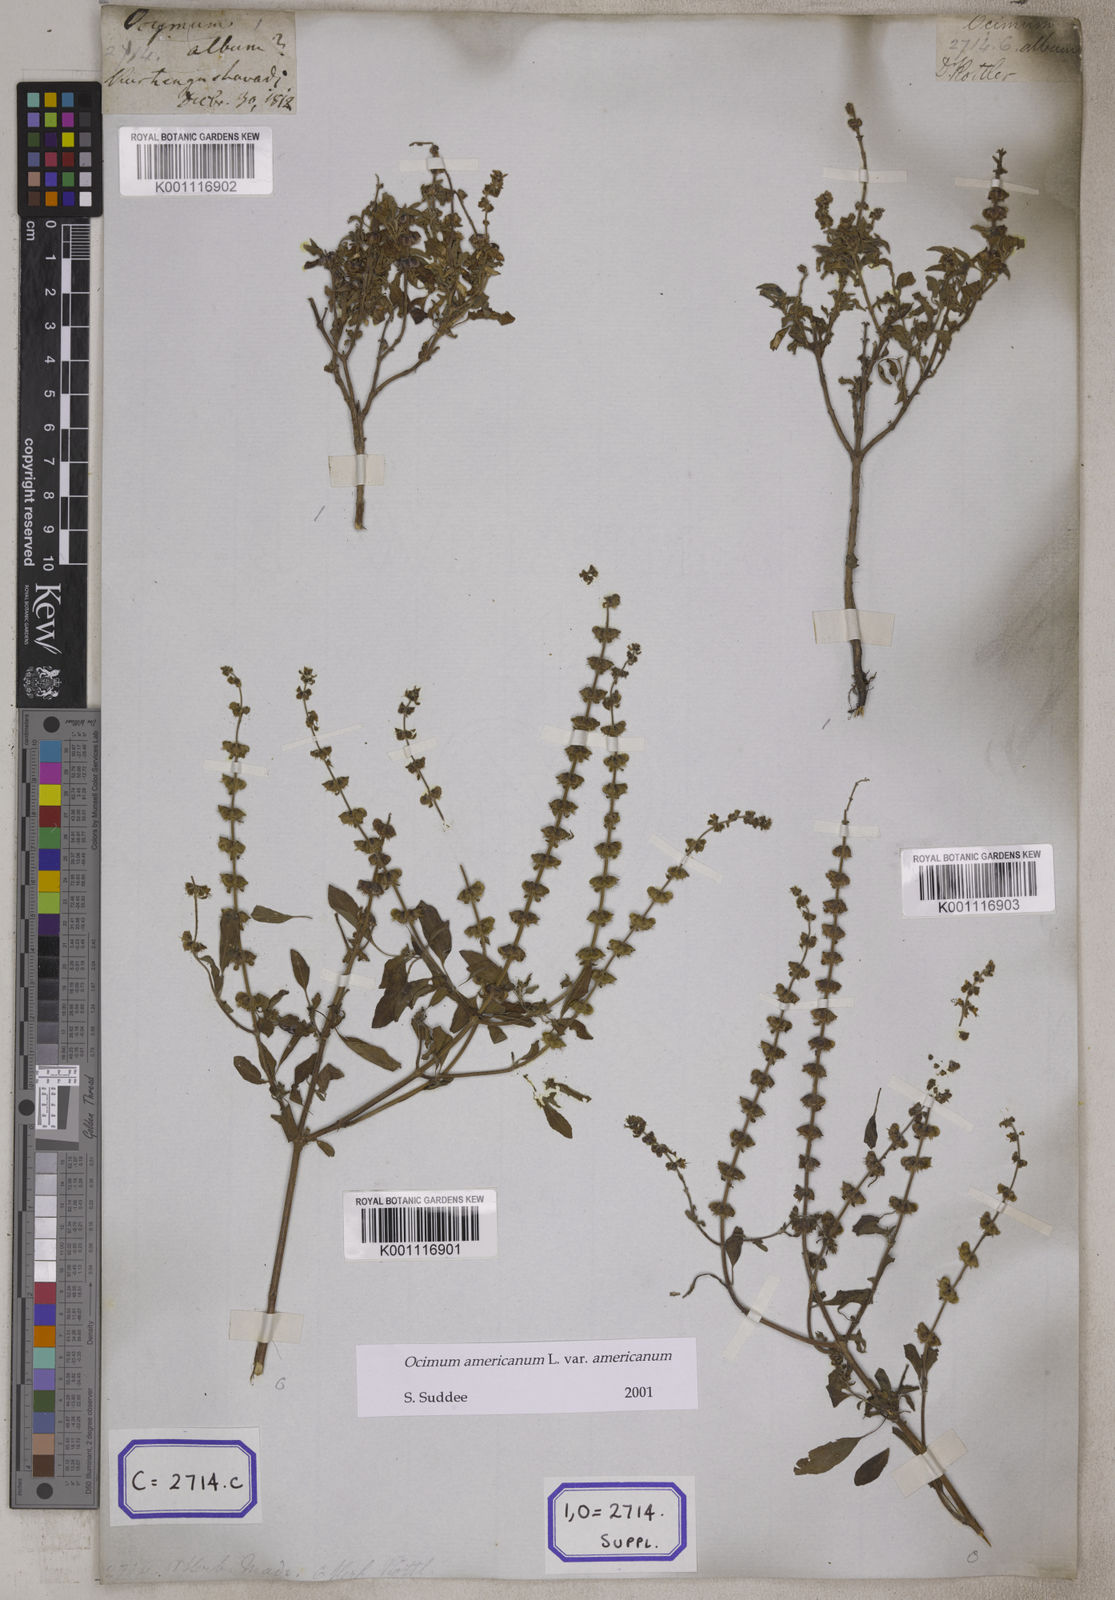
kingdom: Plantae
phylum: Tracheophyta
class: Magnoliopsida
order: Lamiales
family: Lamiaceae
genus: Ocimum
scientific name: Ocimum americanum
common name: American basil
